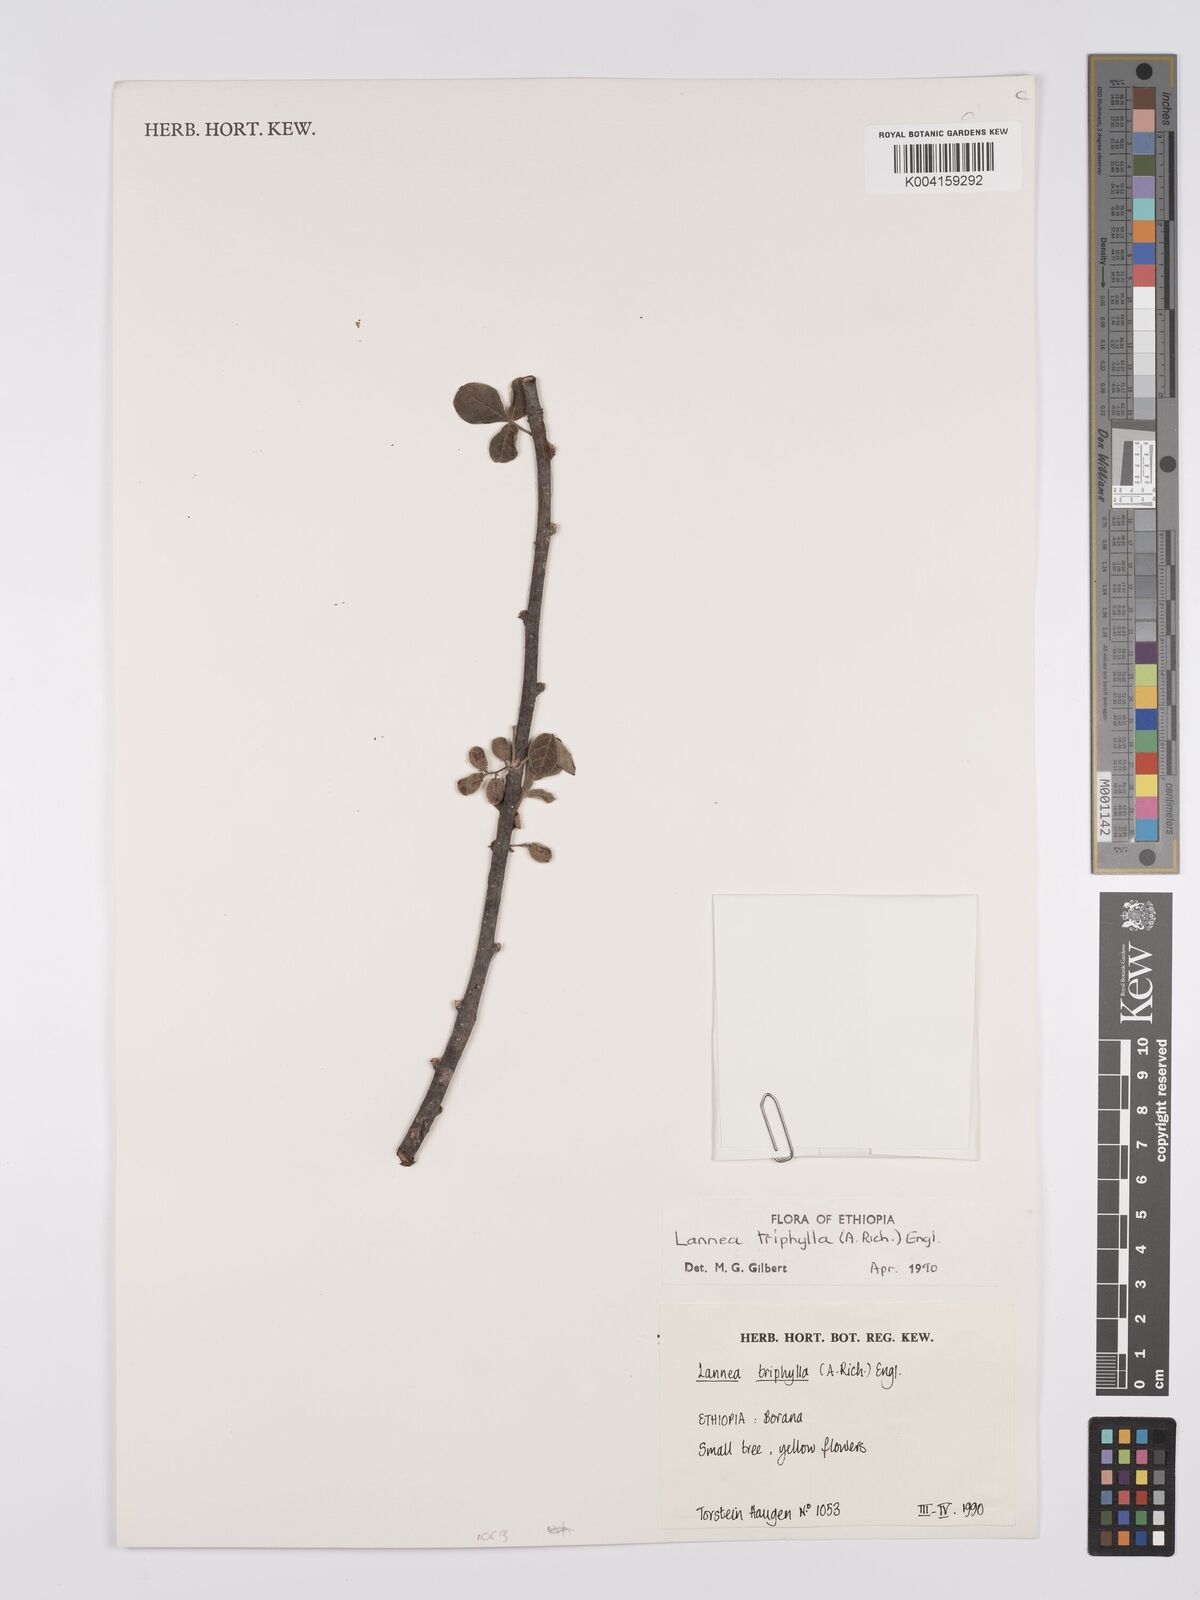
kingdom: Plantae
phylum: Tracheophyta
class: Magnoliopsida
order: Sapindales
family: Anacardiaceae
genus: Lannea
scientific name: Lannea triphylla
